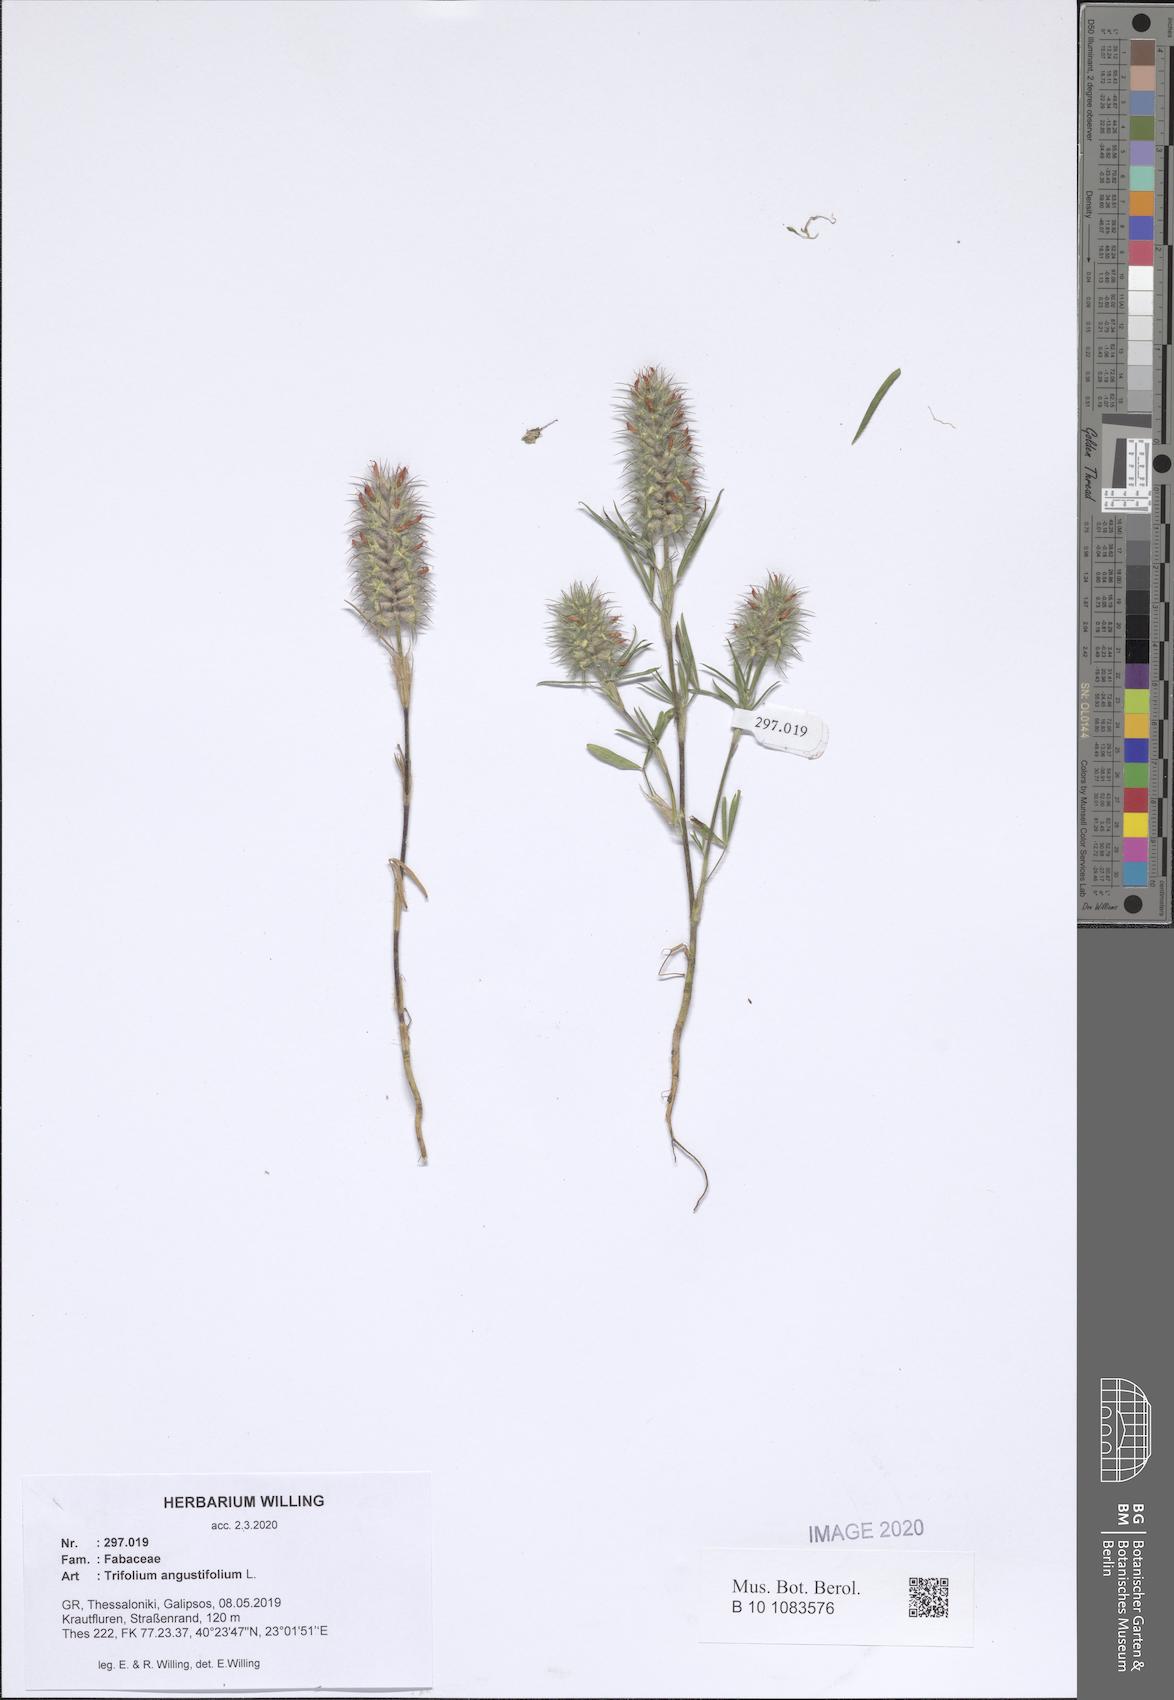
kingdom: Plantae
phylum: Tracheophyta
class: Magnoliopsida
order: Fabales
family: Fabaceae
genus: Trifolium
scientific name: Trifolium angustifolium
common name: Narrow clover
